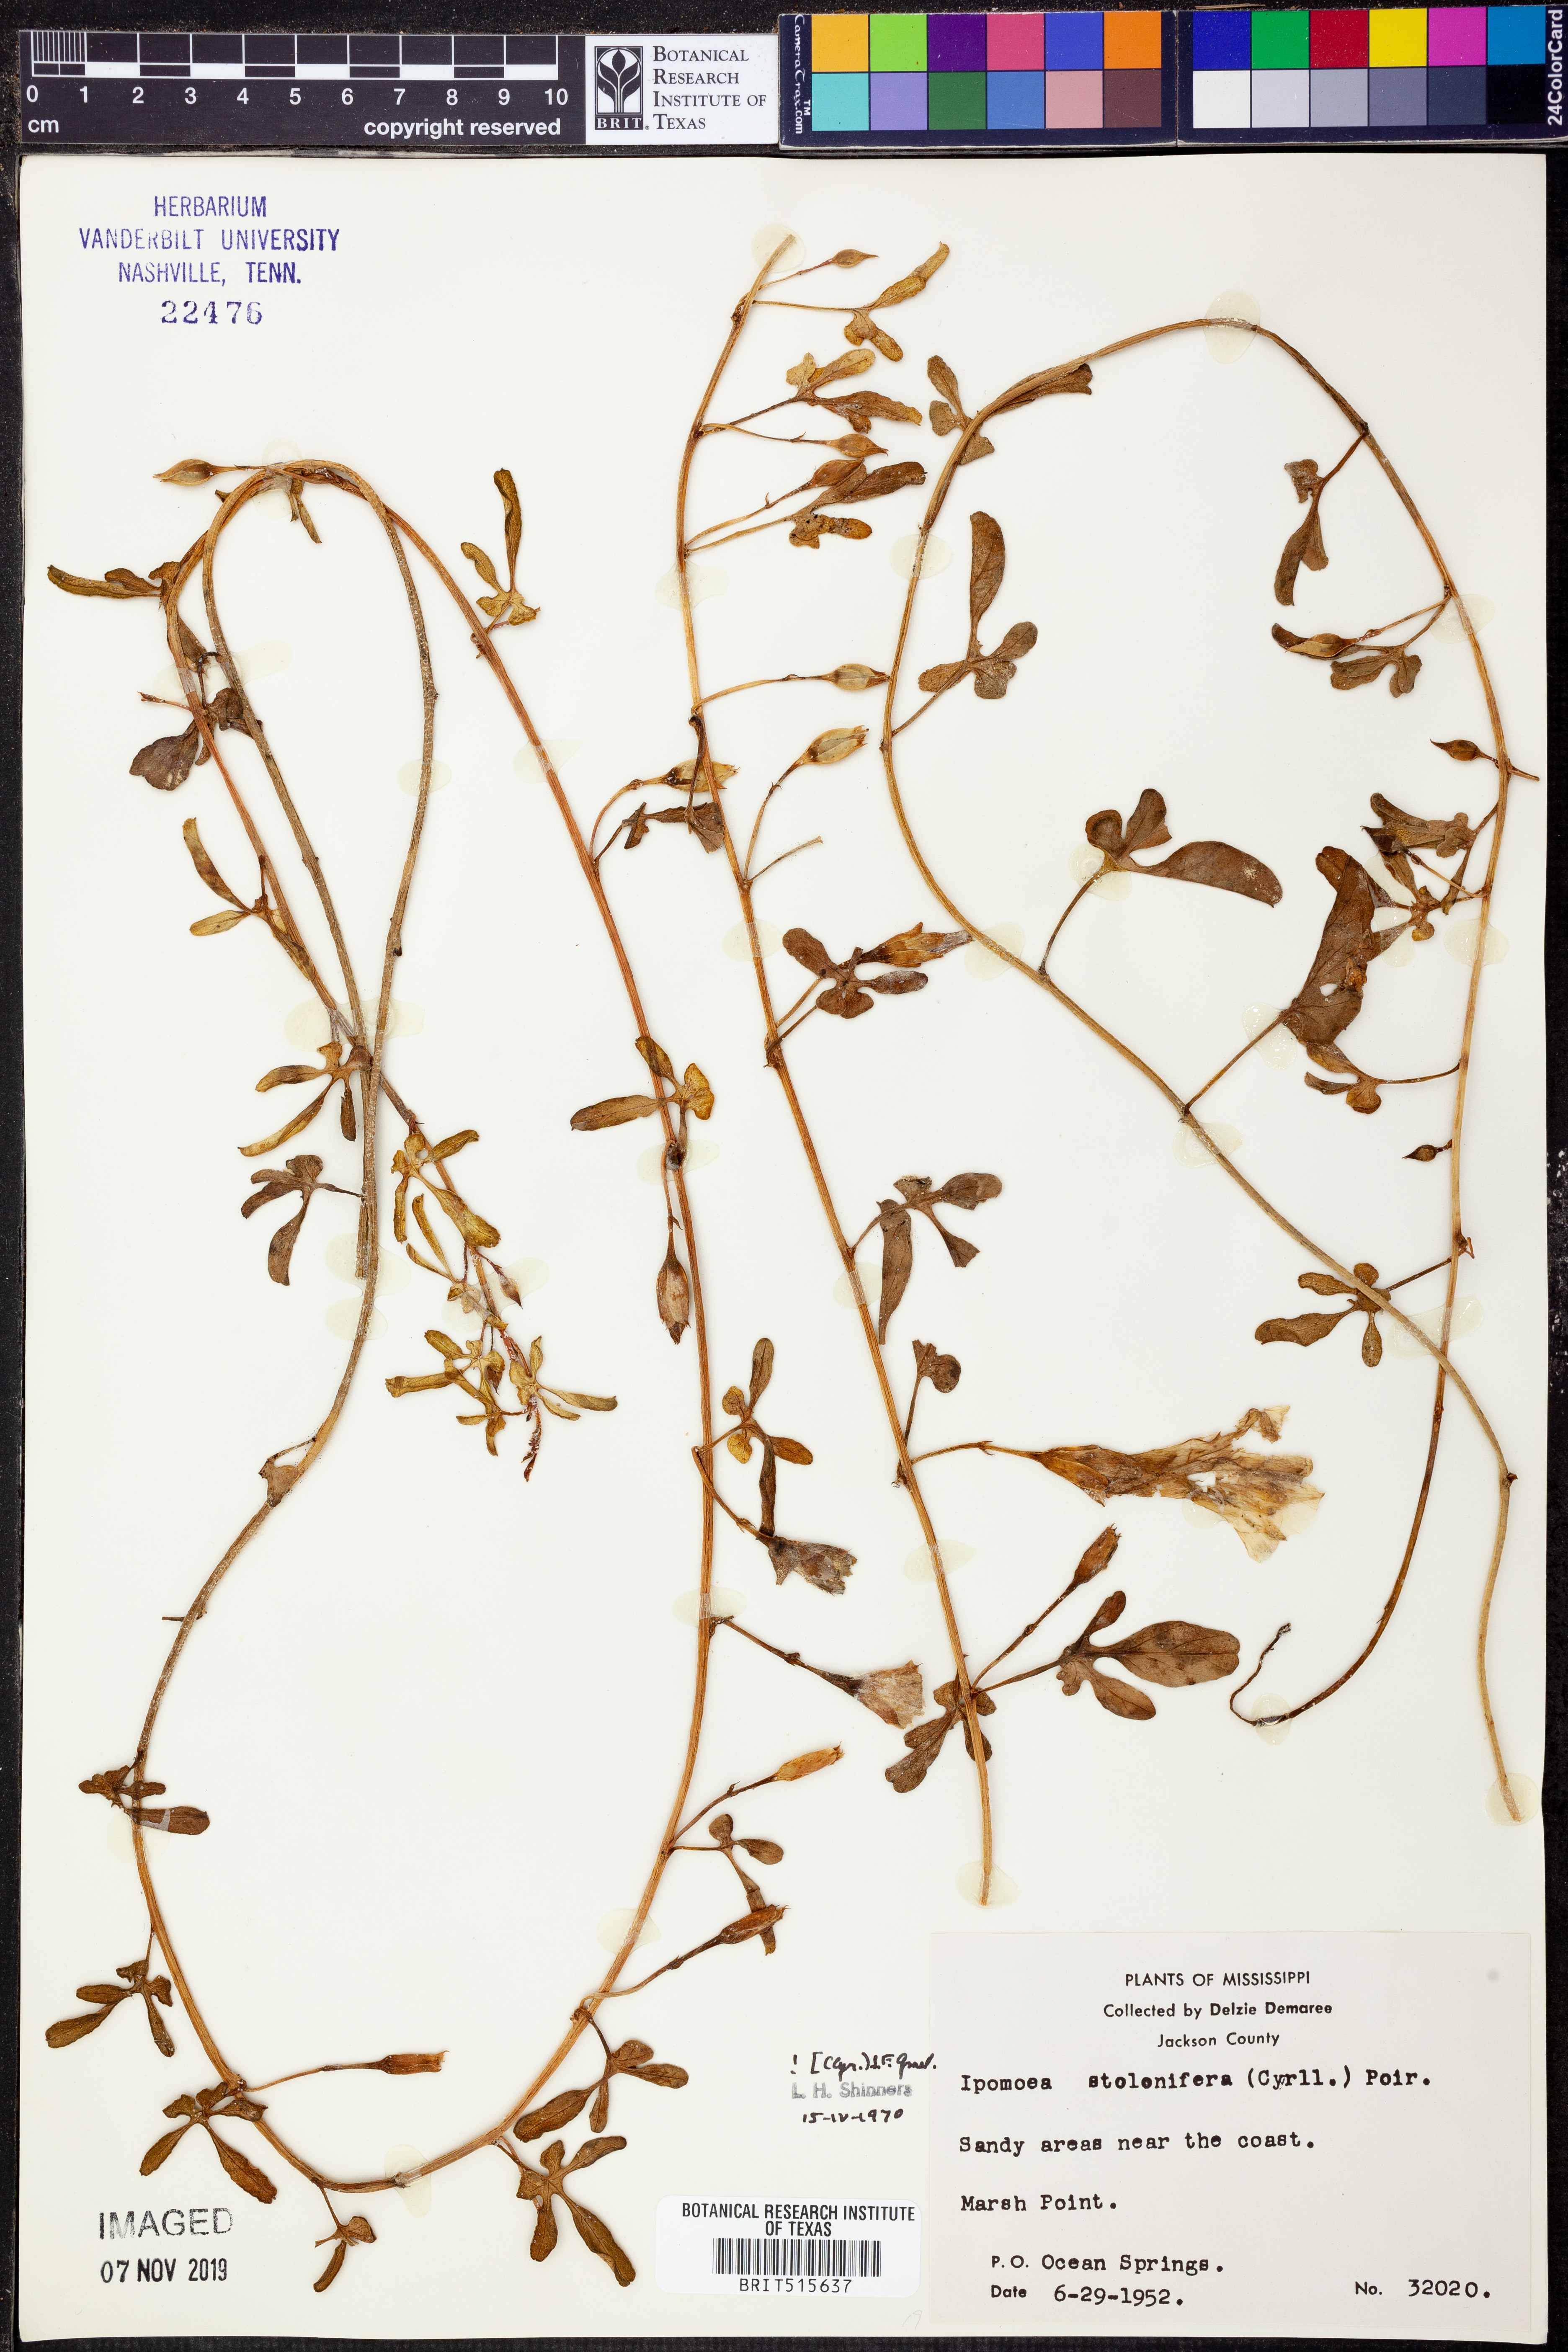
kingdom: Plantae
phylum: Tracheophyta
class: Magnoliopsida
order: Solanales
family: Convolvulaceae
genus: Ipomoea
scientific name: Ipomoea imperati
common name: Fiddle-leaf morning-glory
